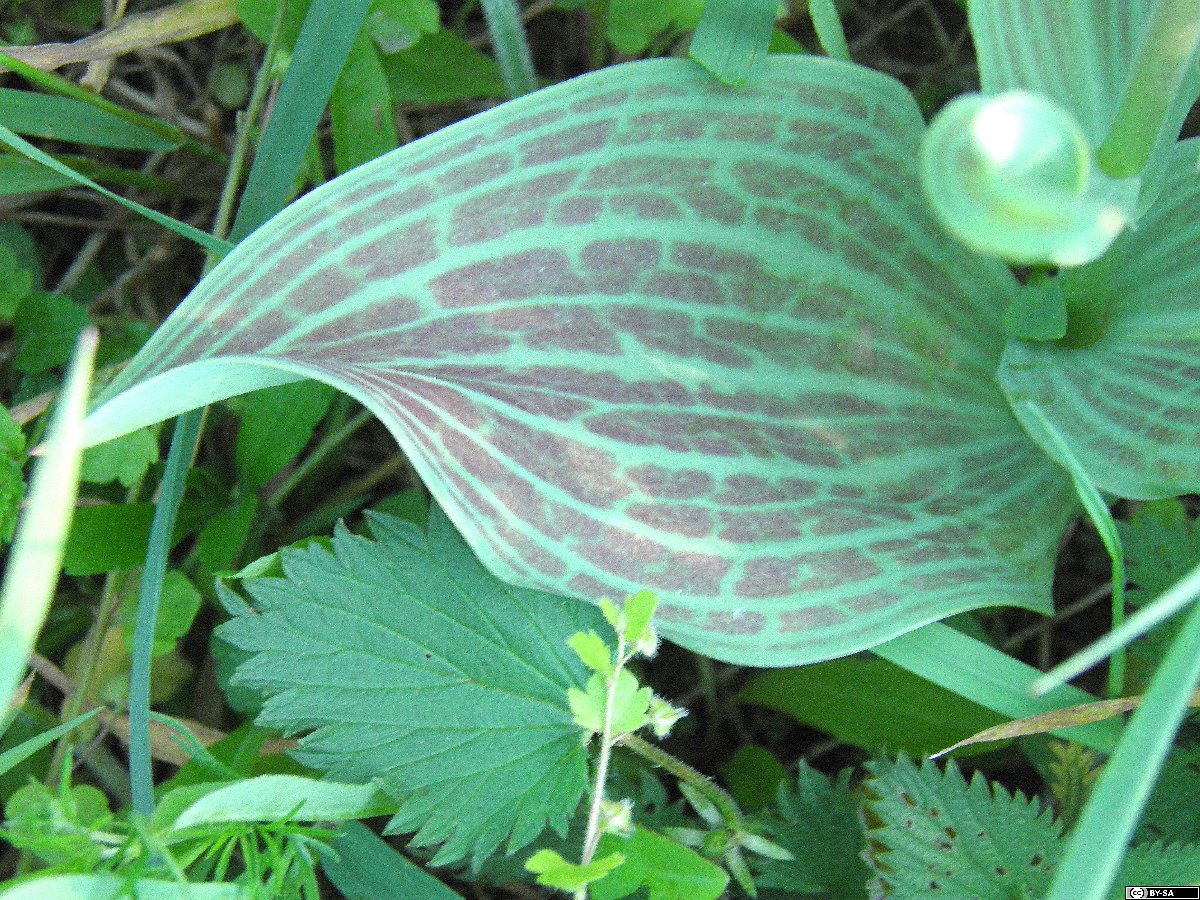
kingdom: Plantae
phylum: Tracheophyta
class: Liliopsida
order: Liliales
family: Liliaceae
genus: Tulipa
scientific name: Tulipa greigii
